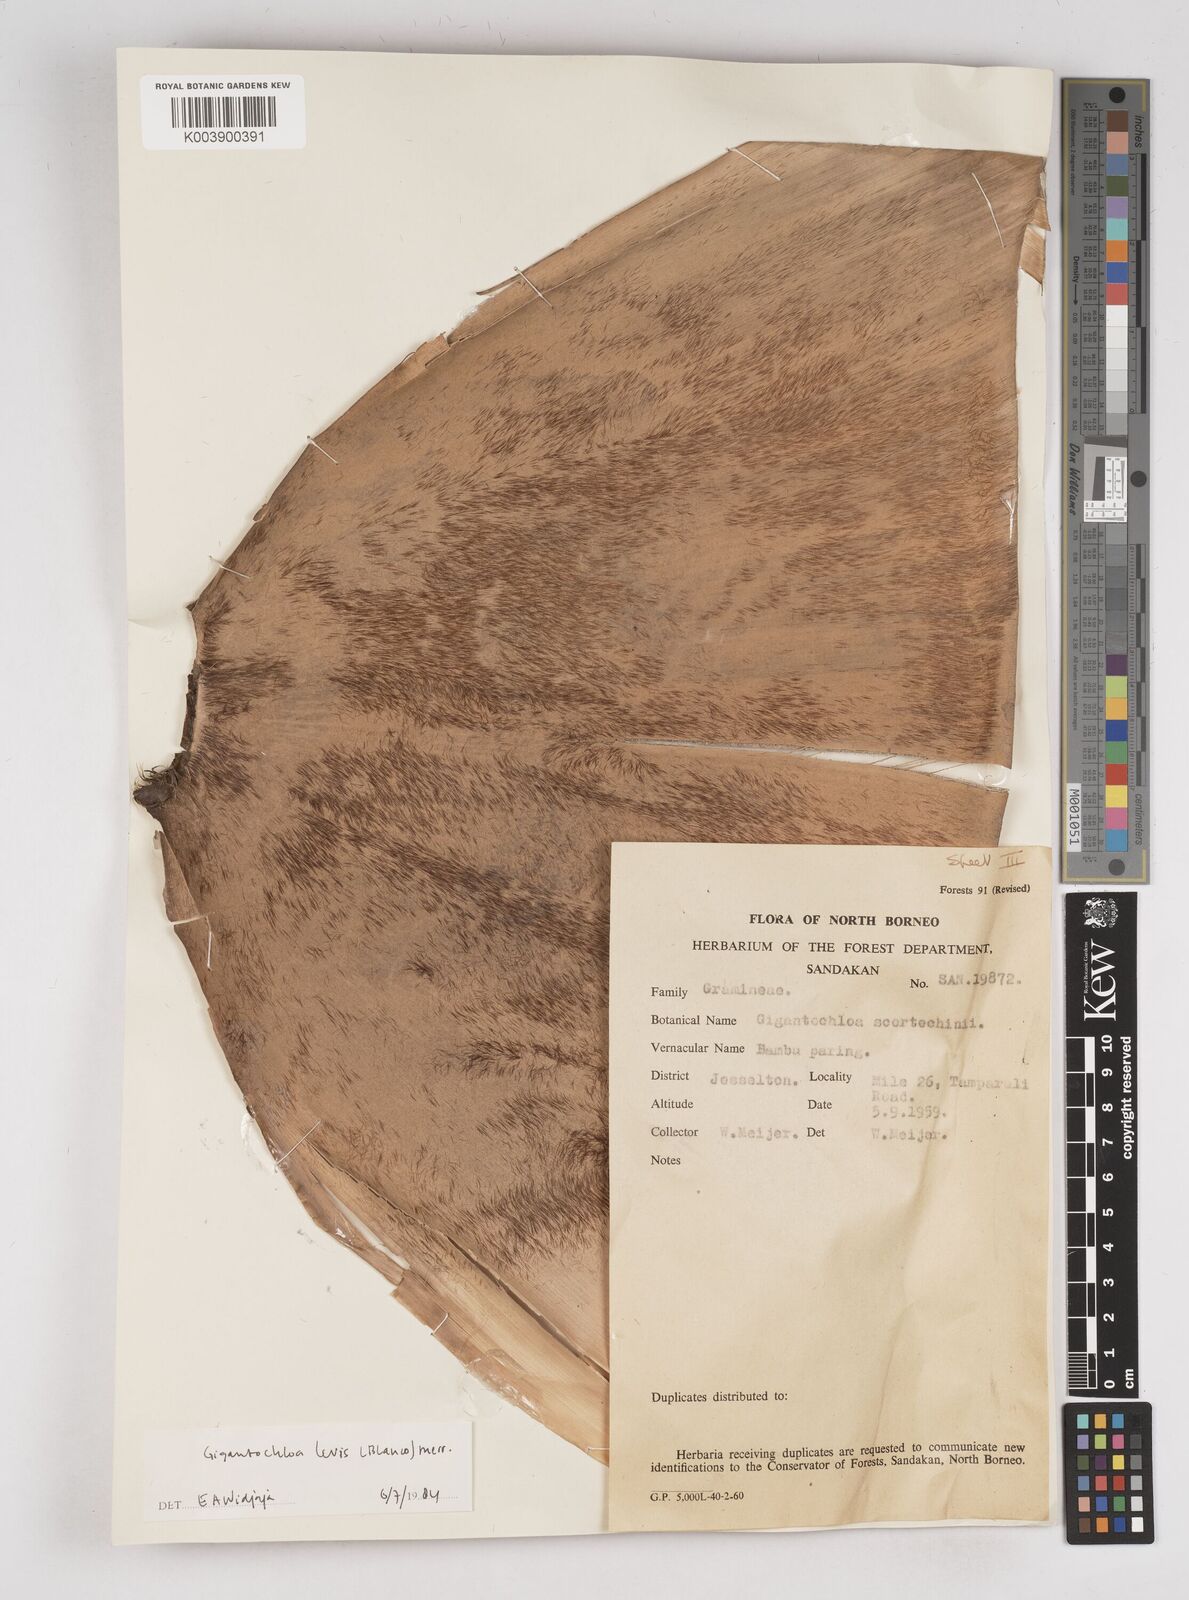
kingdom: Plantae
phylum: Tracheophyta
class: Liliopsida
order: Poales
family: Poaceae
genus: Gigantochloa
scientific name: Gigantochloa levis
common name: Smooth-shoot gigantochloa
